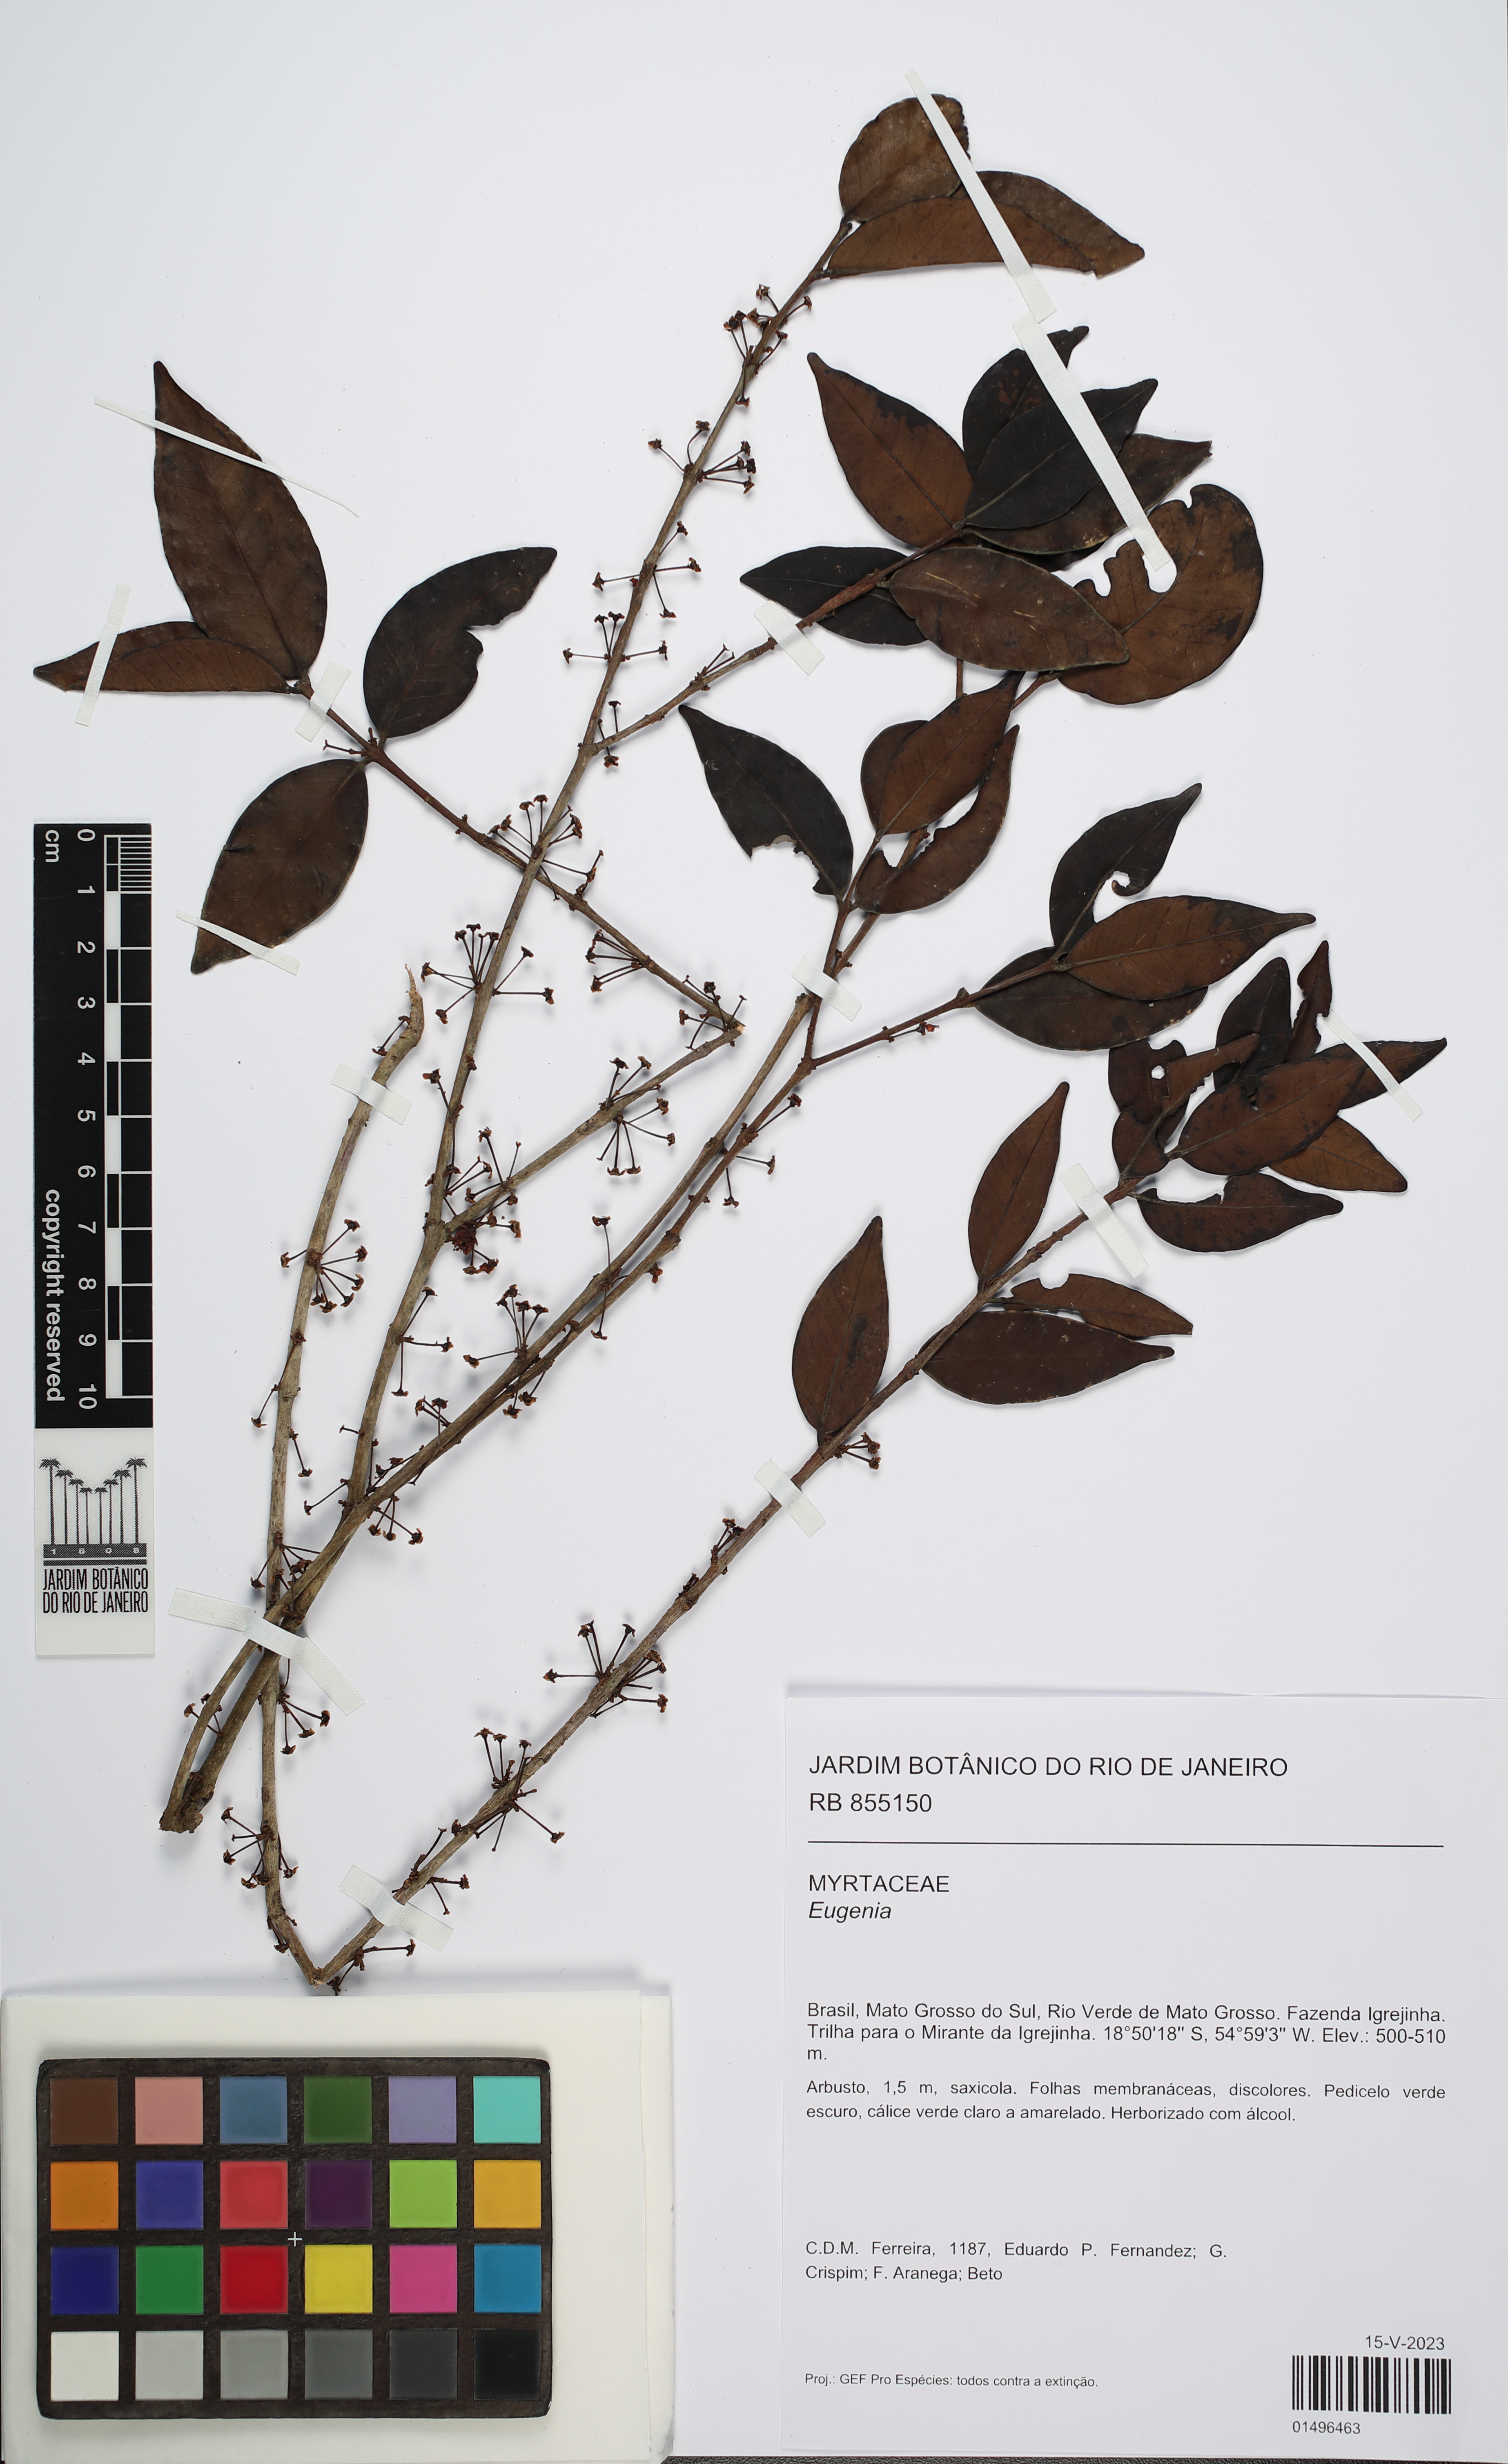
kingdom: Plantae
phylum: Tracheophyta
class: Magnoliopsida
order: Myrtales
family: Myrtaceae
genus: Eugenia
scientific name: Eugenia egensis
